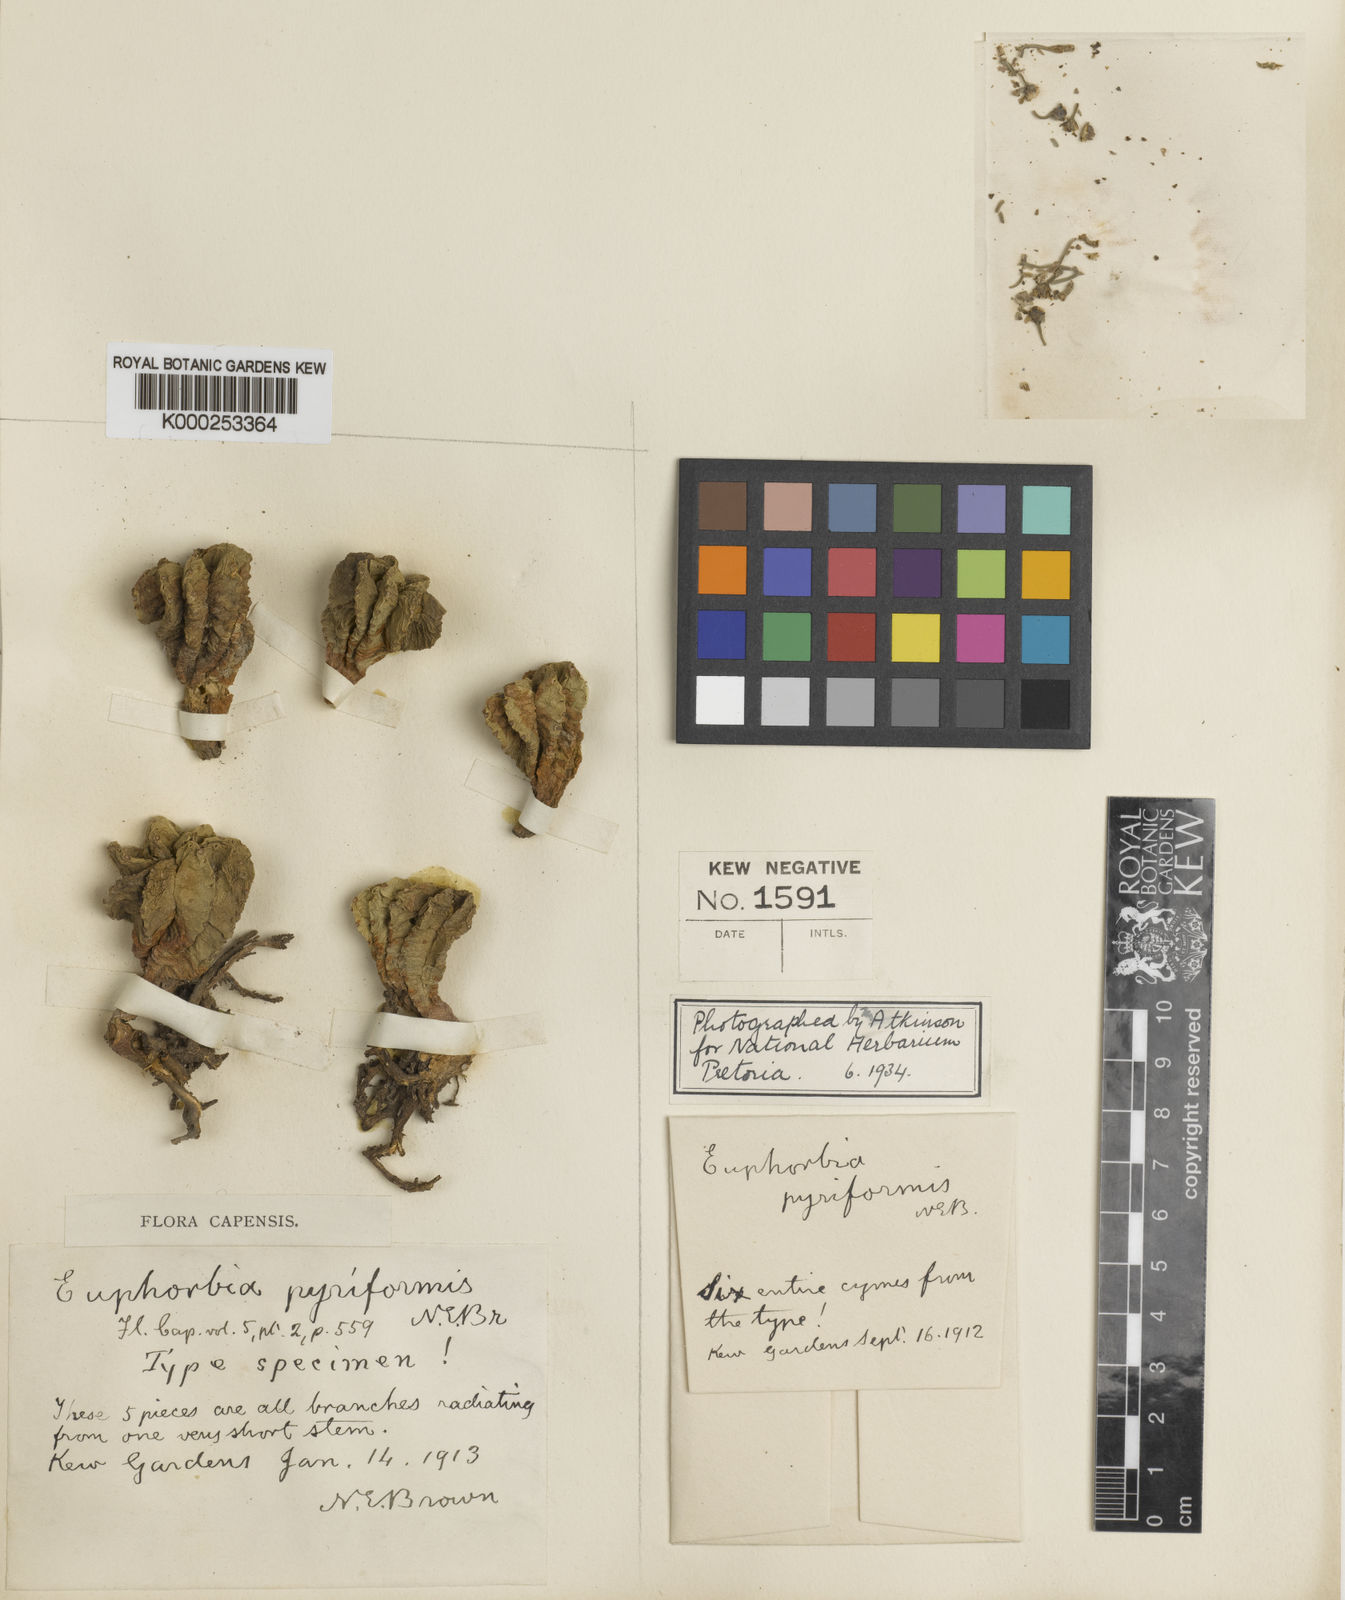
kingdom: Plantae
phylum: Tracheophyta
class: Magnoliopsida
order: Malpighiales
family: Euphorbiaceae
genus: Euphorbia
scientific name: Euphorbia meloformis
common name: Melon spurge
